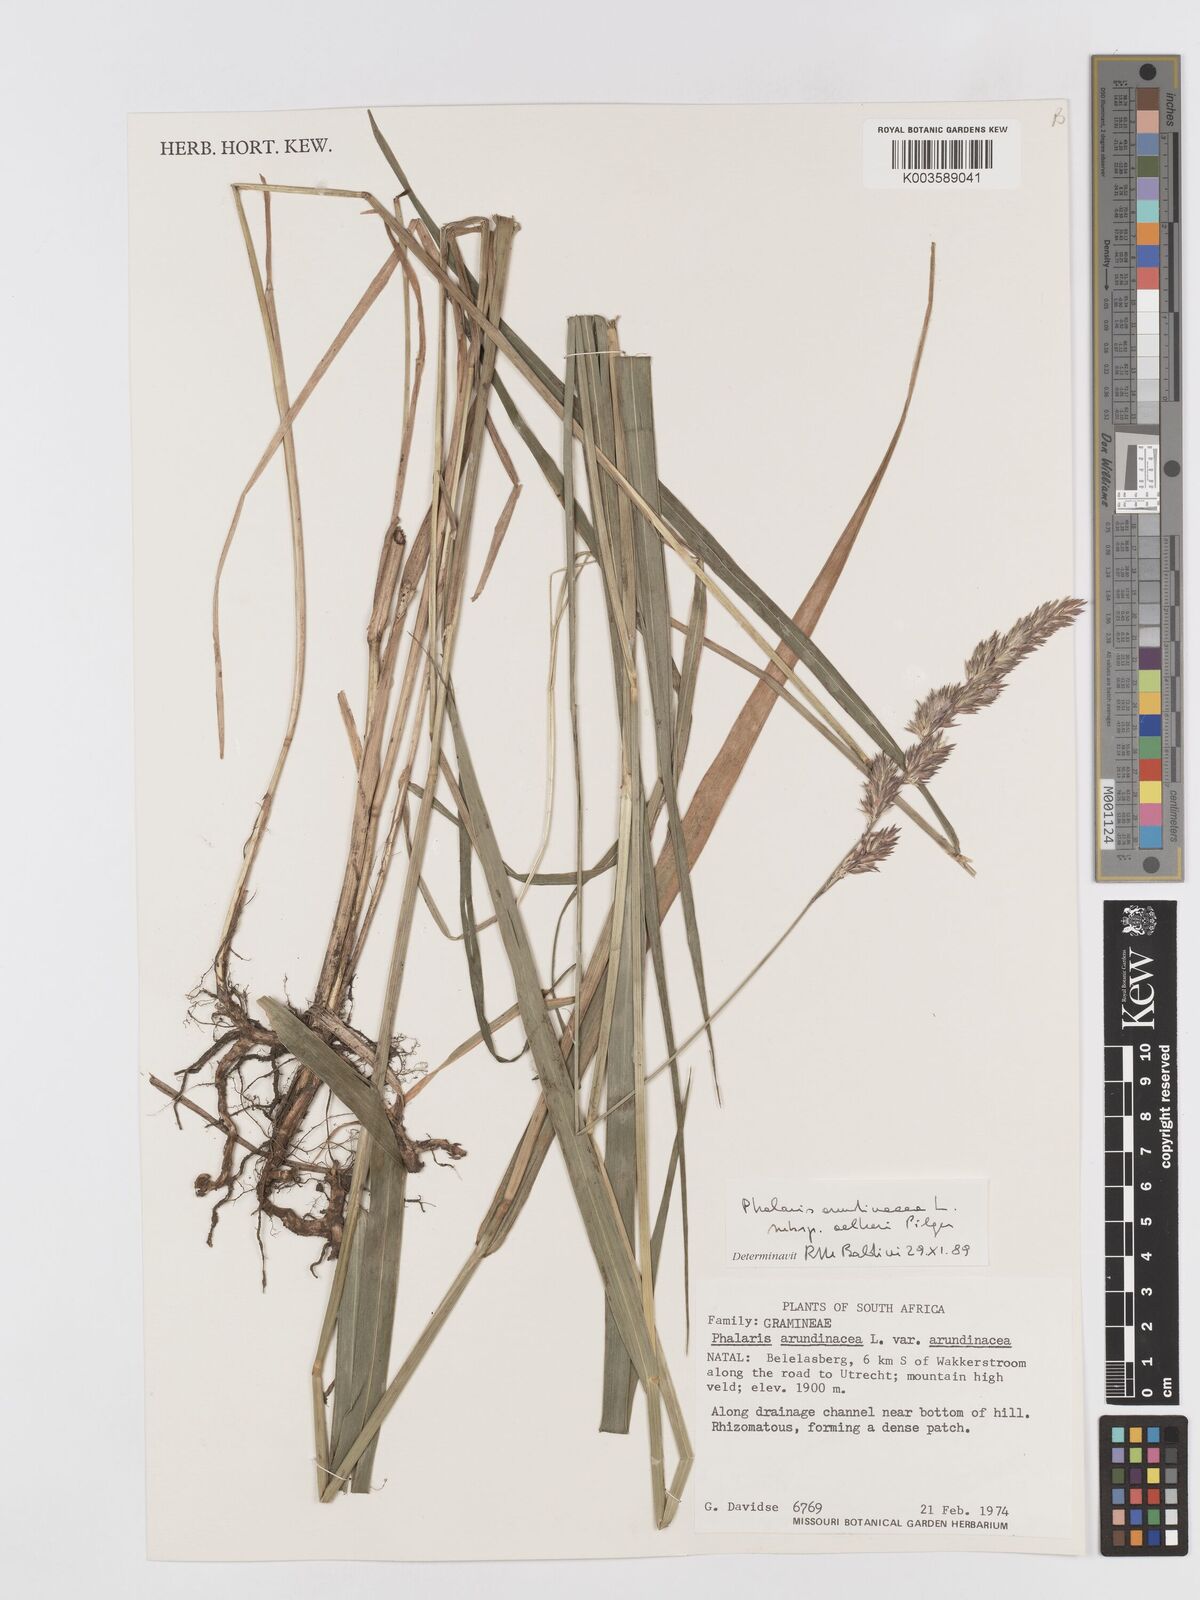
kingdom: Plantae
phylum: Tracheophyta
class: Liliopsida
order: Poales
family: Poaceae
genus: Phalaris
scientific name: Phalaris arundinacea
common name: Reed canary-grass
